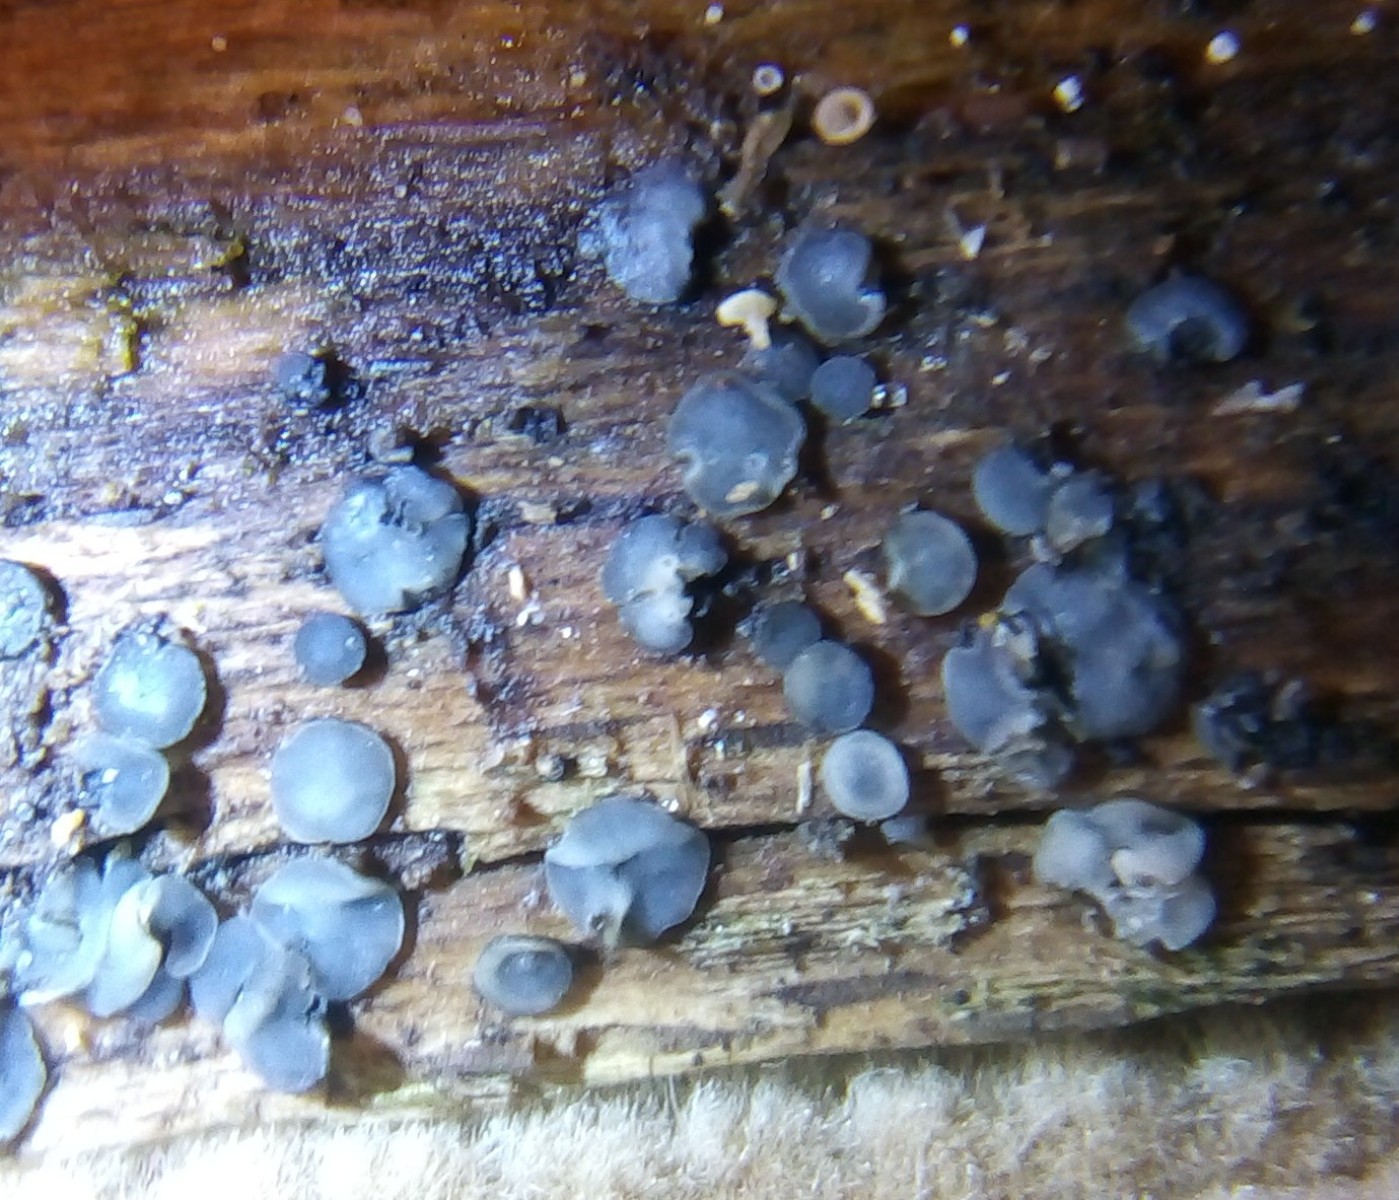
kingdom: Fungi
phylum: Ascomycota
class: Leotiomycetes
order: Helotiales
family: Mollisiaceae
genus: Mollisia
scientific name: Mollisia cinerea
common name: almindelig gråskive
